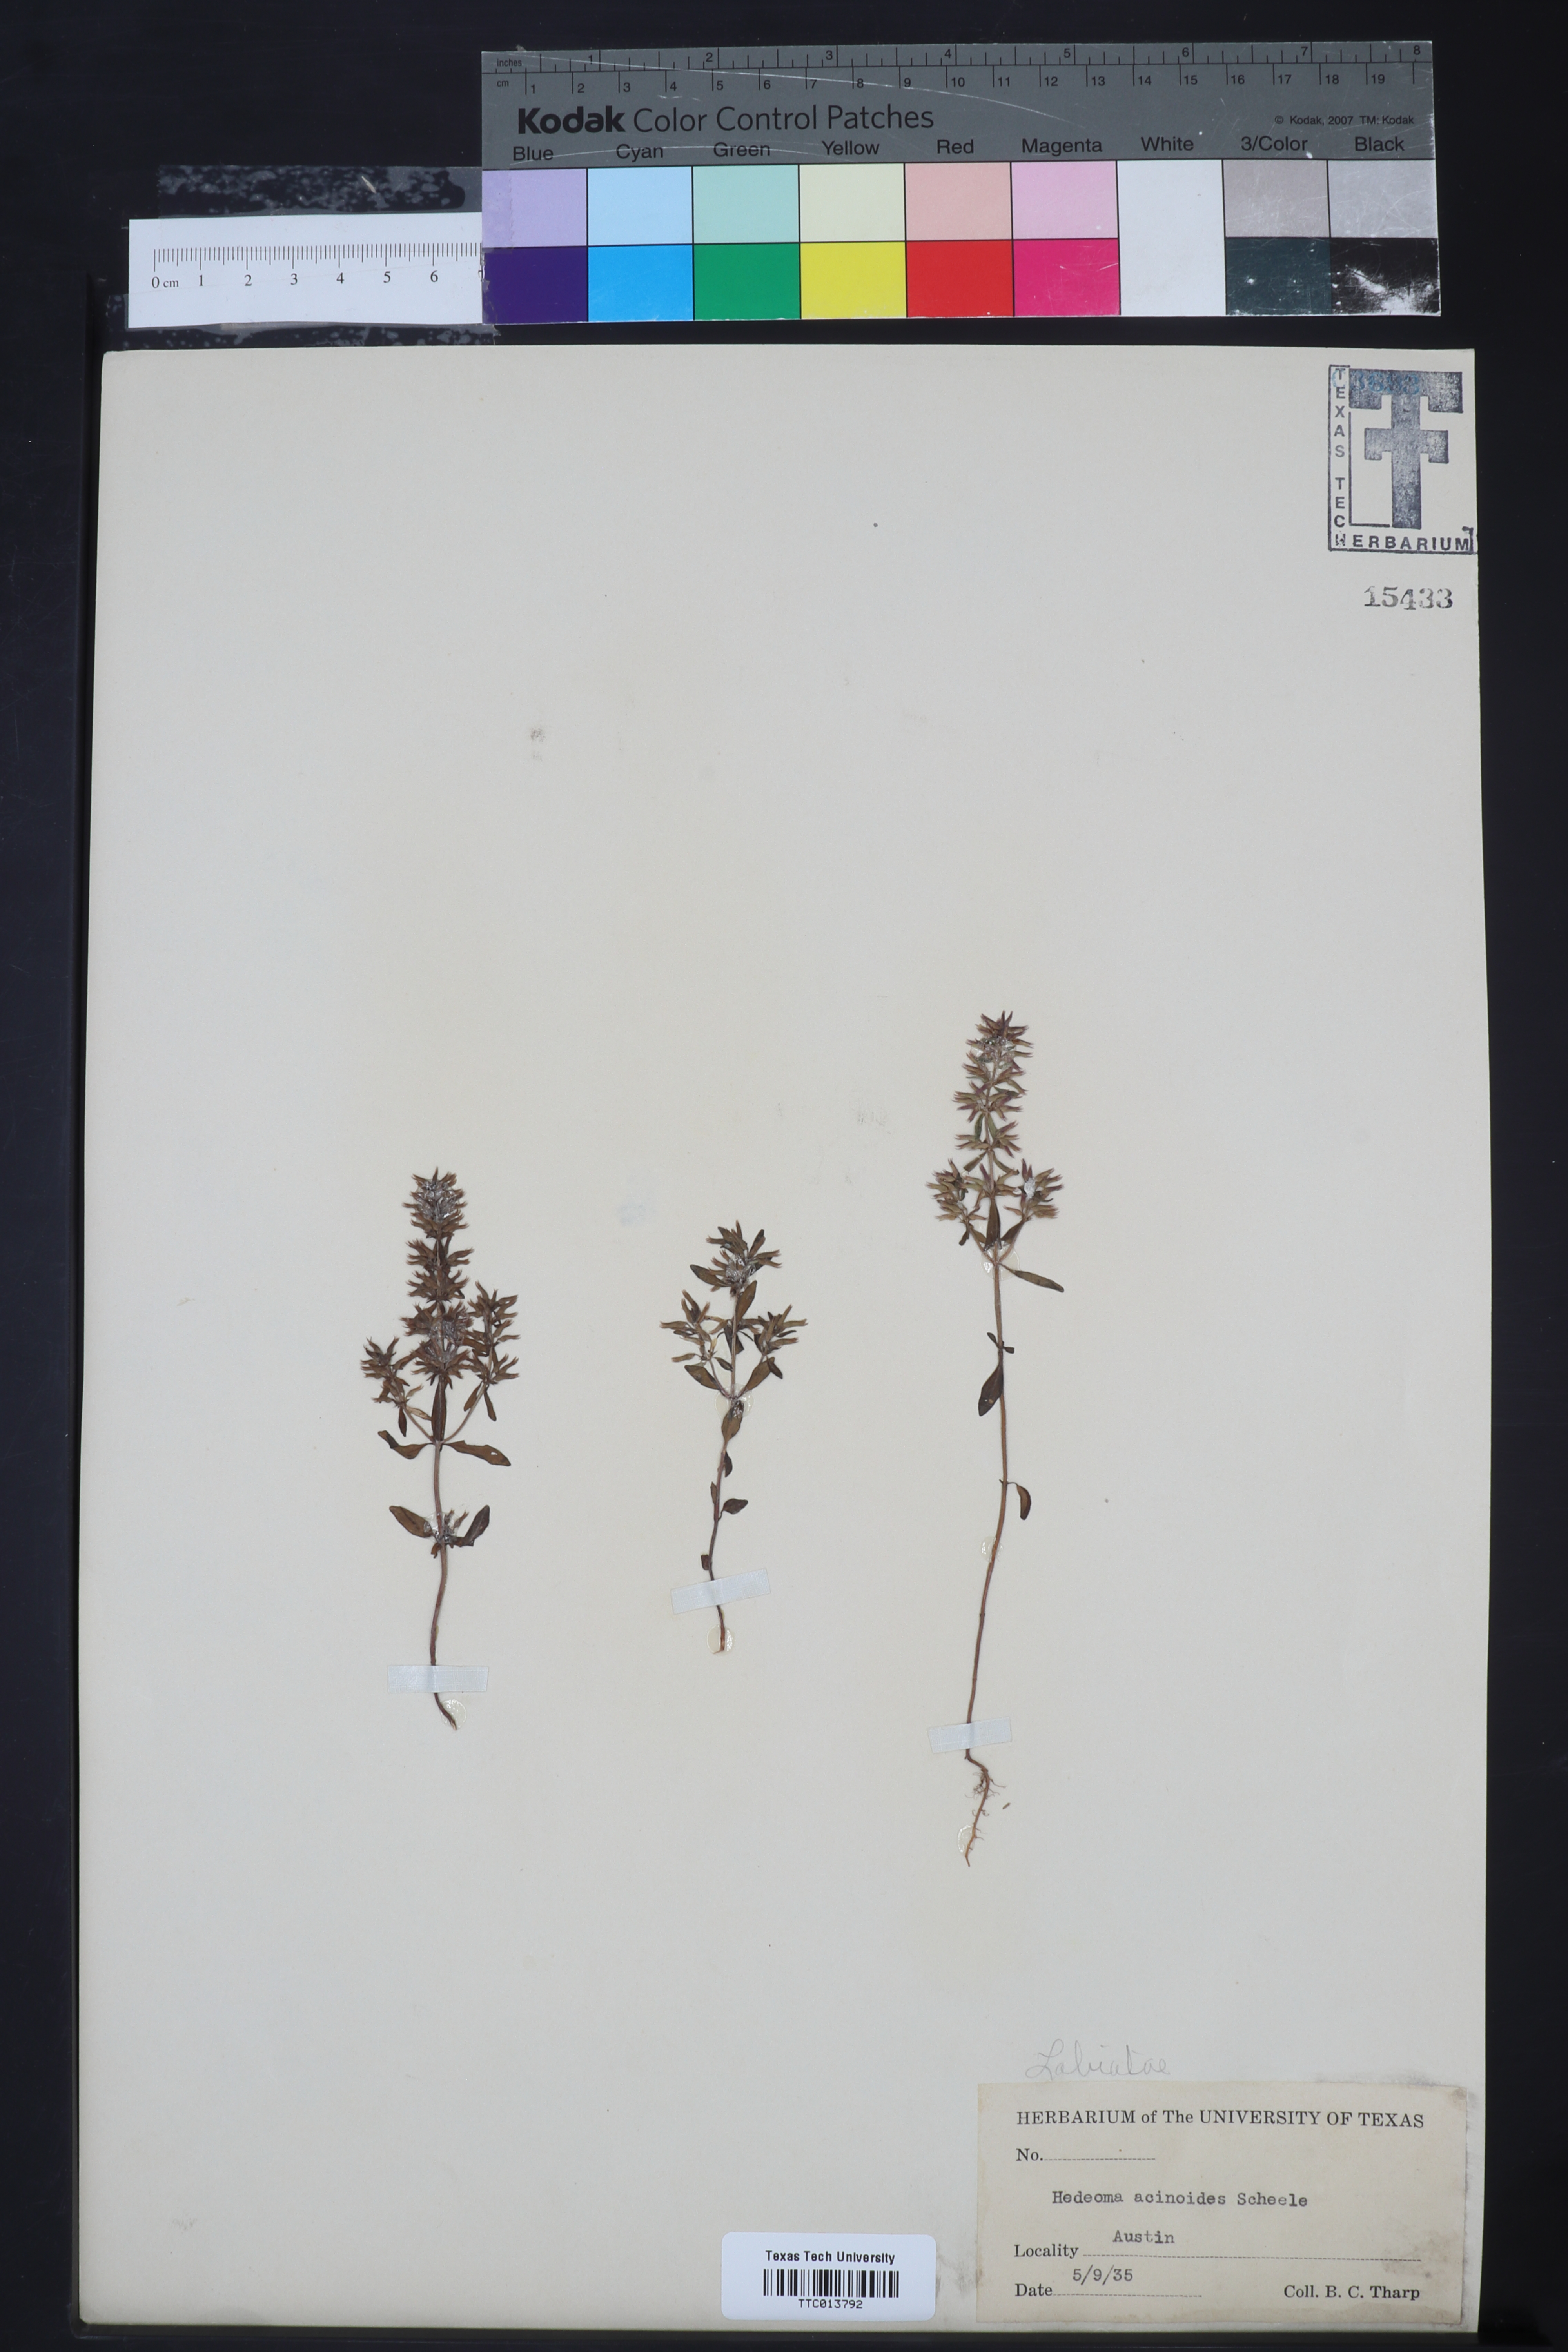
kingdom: Plantae
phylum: Tracheophyta
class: Magnoliopsida
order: Lamiales
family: Lamiaceae
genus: Hedeoma
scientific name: Hedeoma acinoides
